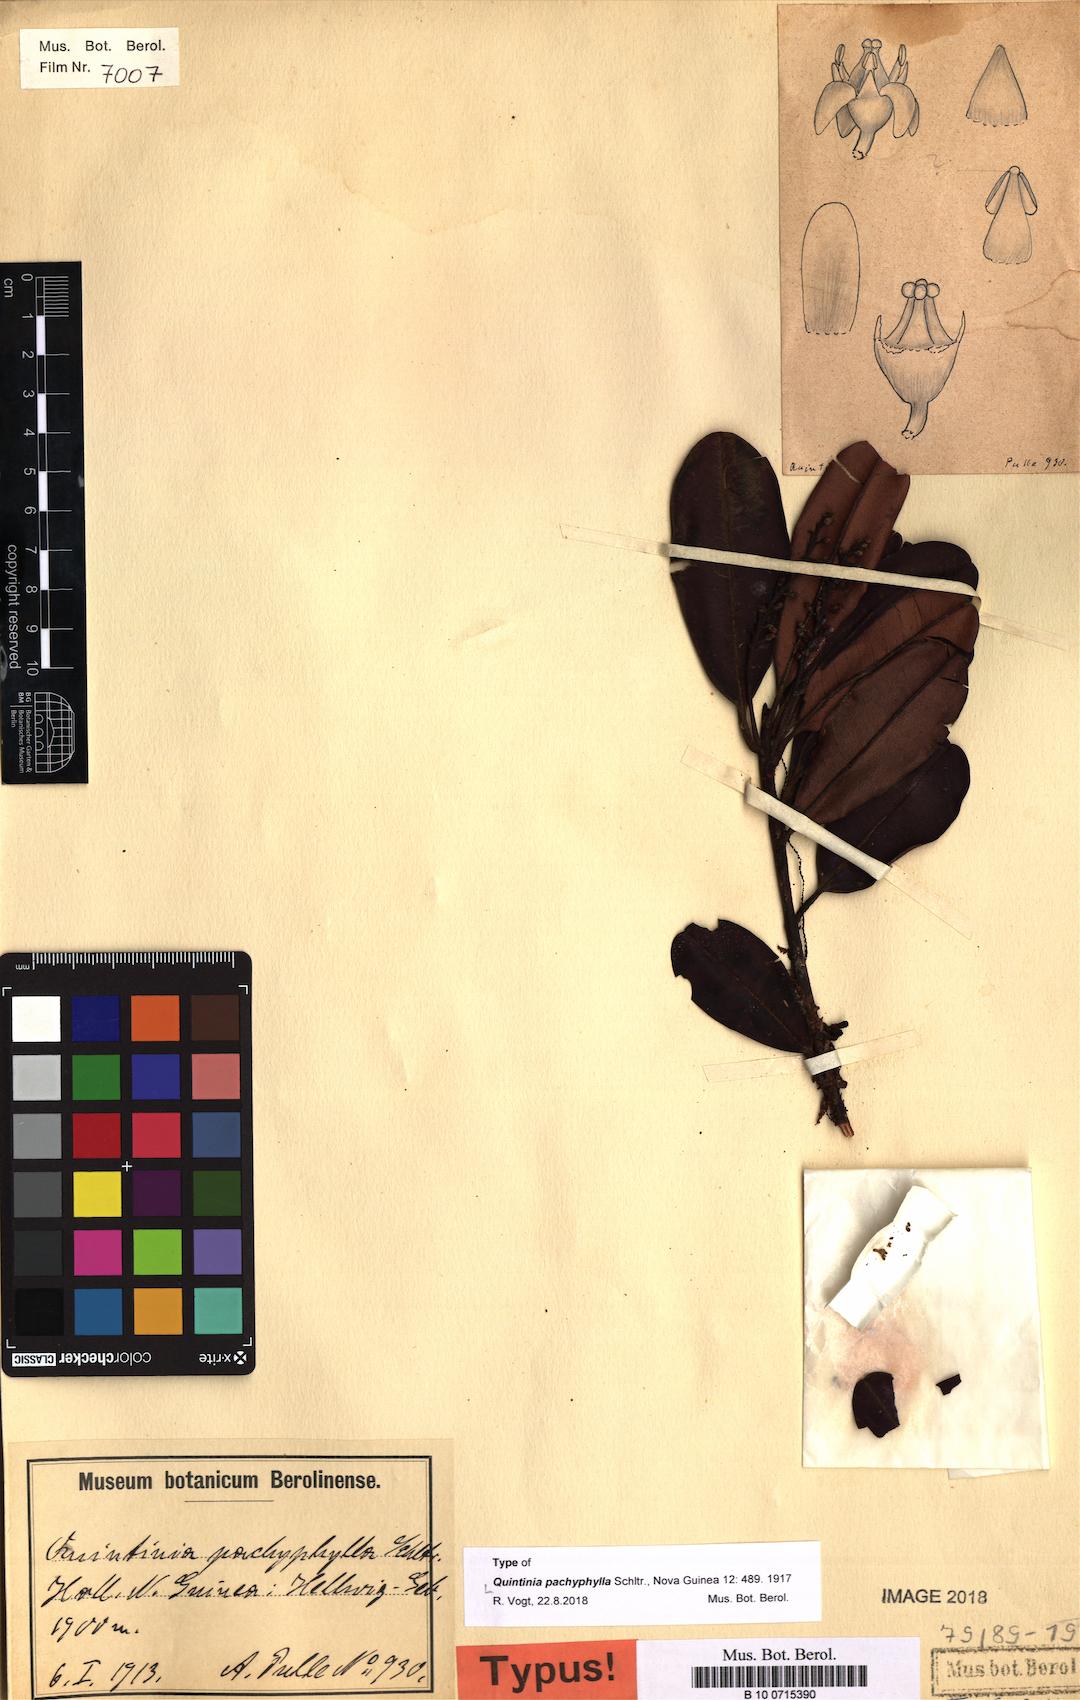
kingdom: Plantae
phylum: Tracheophyta
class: Magnoliopsida
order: Paracryphiales
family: Paracryphiaceae
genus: Quintinia
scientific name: Quintinia pachyphylla
